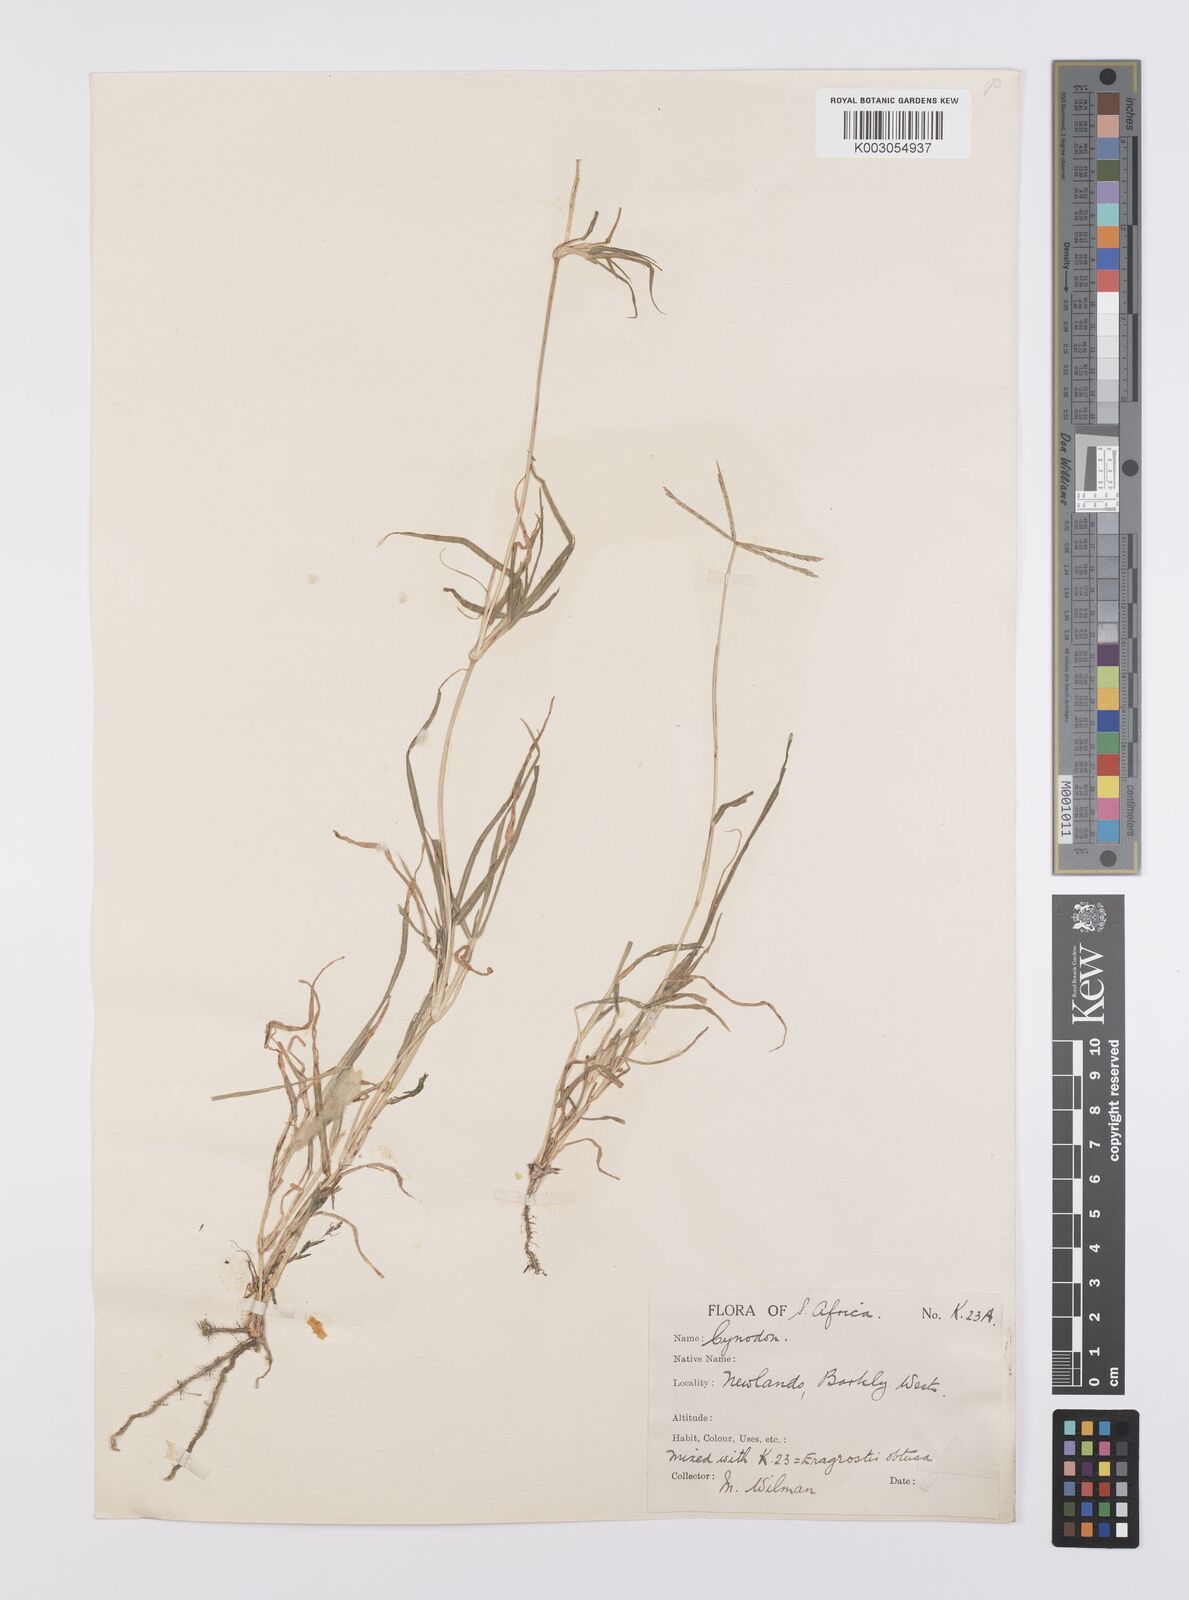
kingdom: Plantae
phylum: Tracheophyta
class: Liliopsida
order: Poales
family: Poaceae
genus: Cynodon
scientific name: Cynodon dactylon
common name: Bermuda grass
